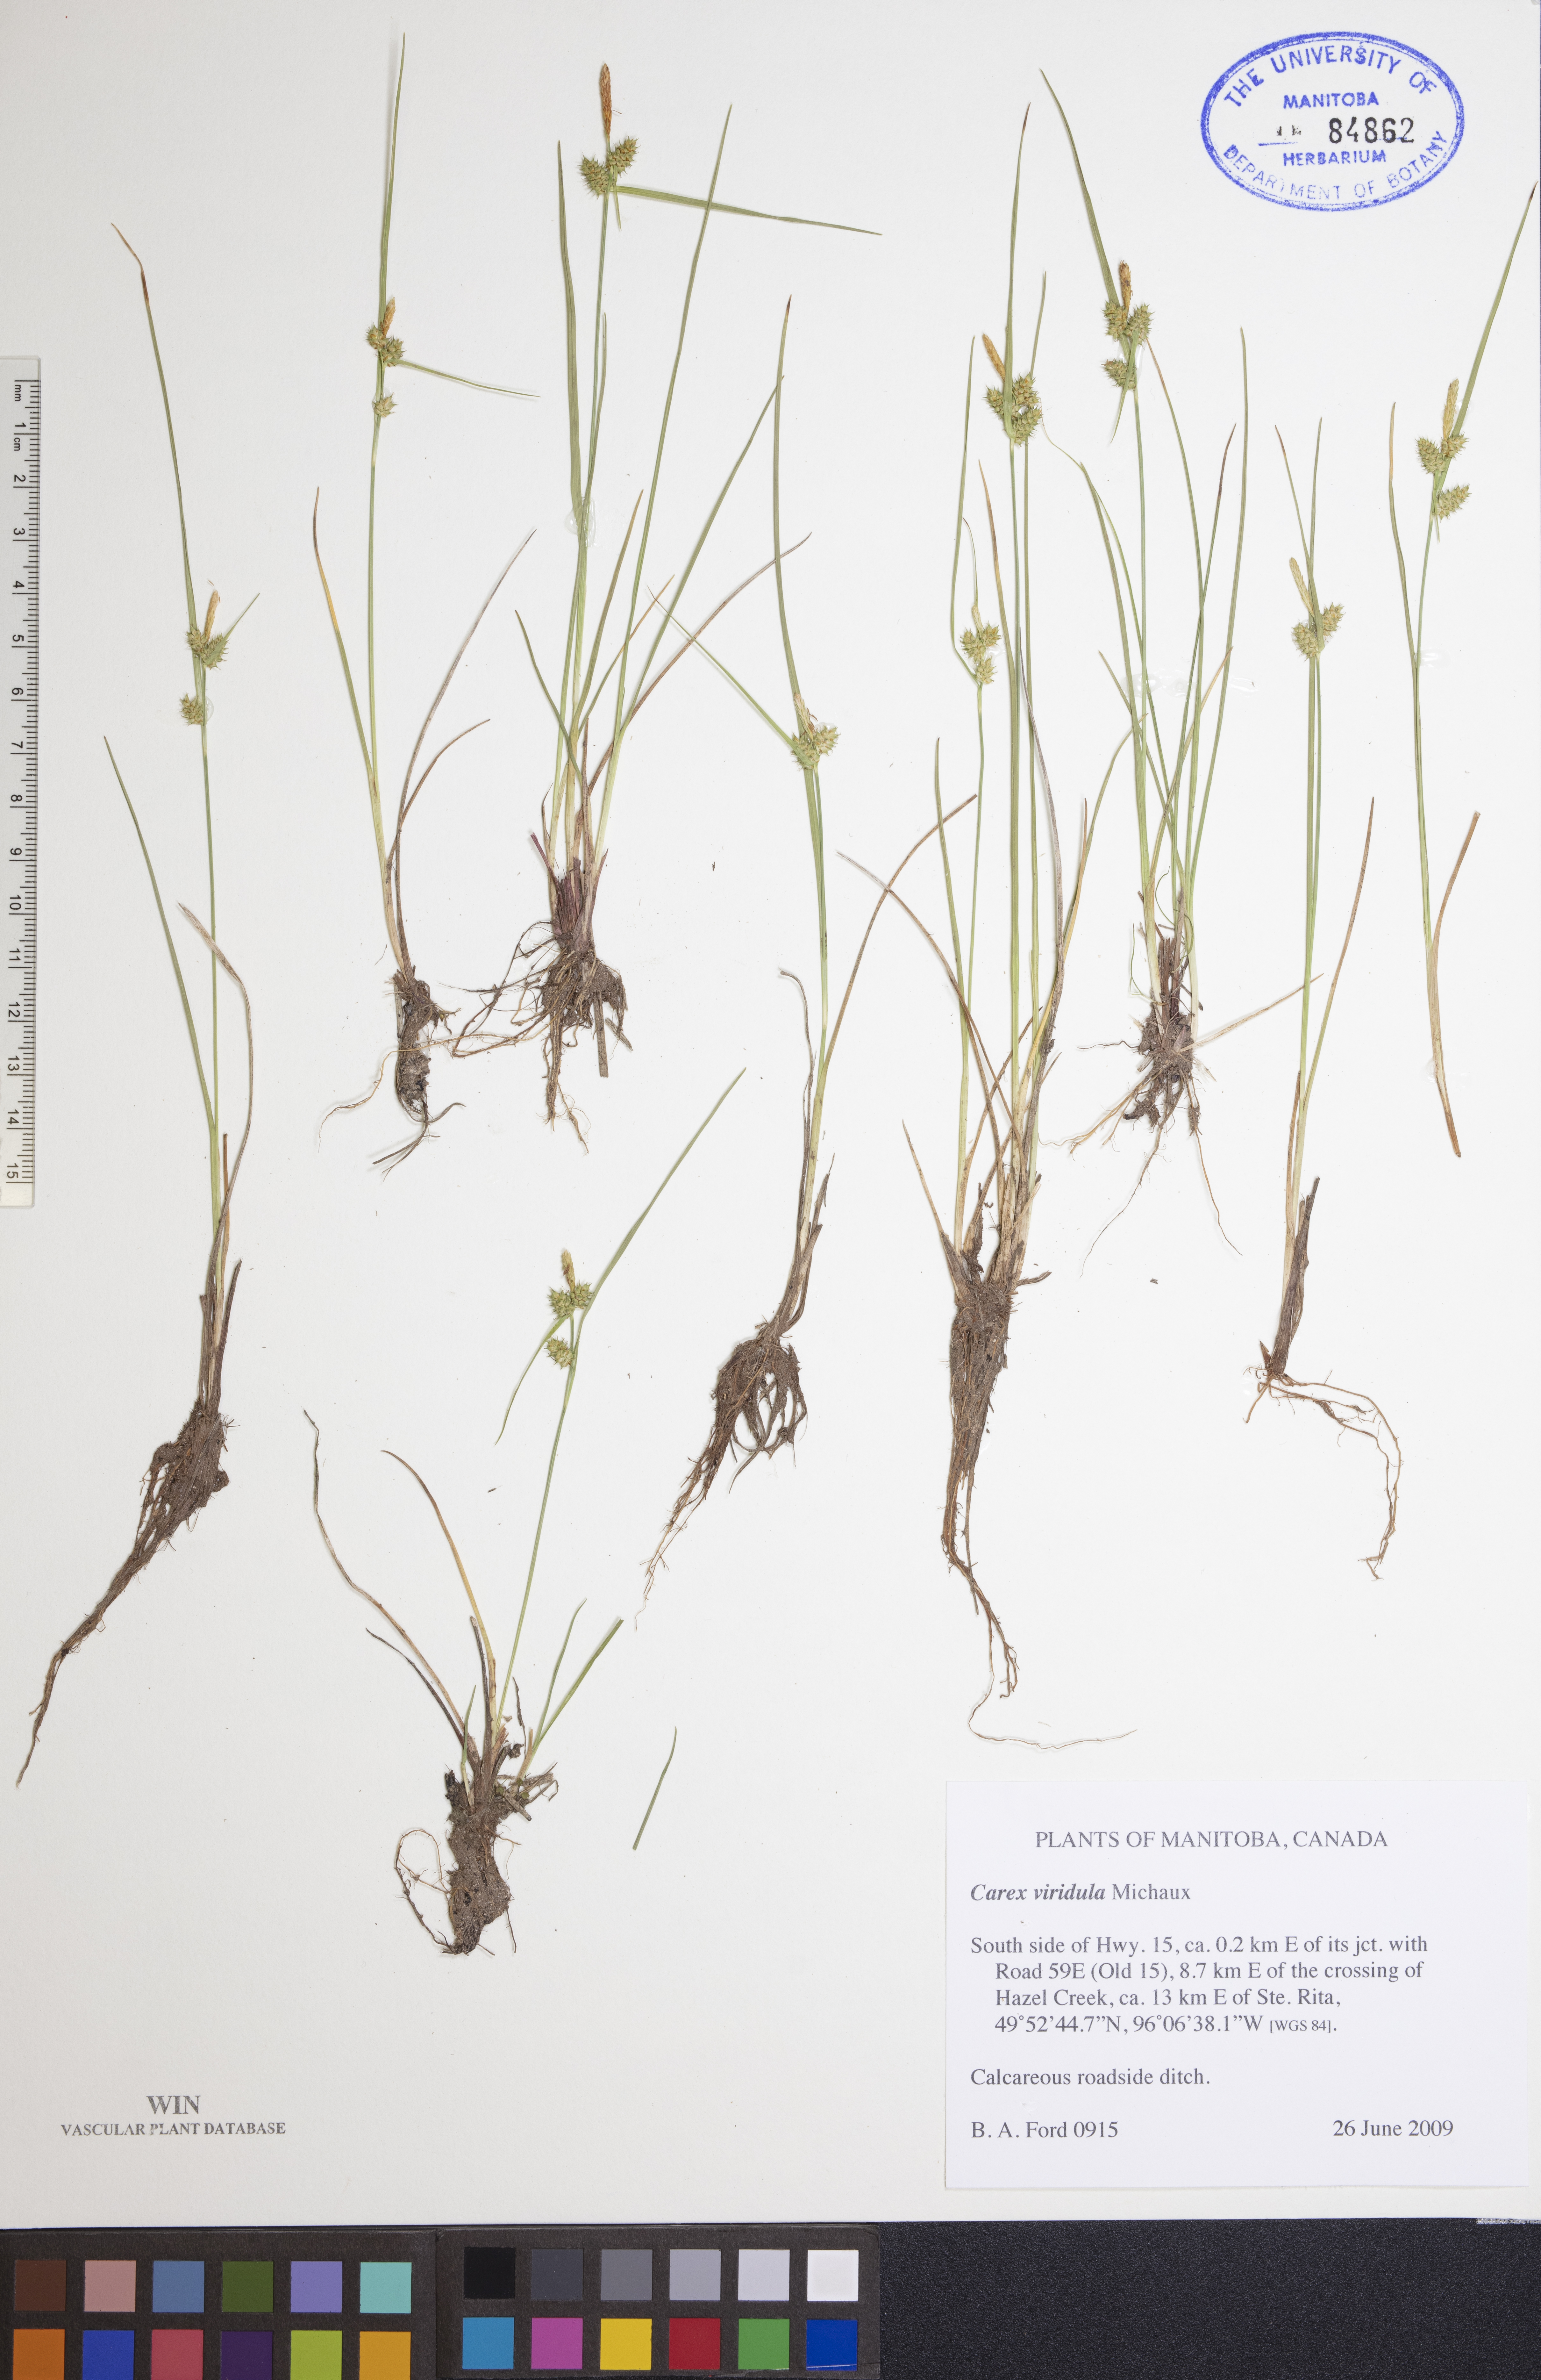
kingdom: Plantae
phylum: Tracheophyta
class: Liliopsida
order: Poales
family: Cyperaceae
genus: Carex
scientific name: Carex oederi
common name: Common & small-fruited yellow-sedge
